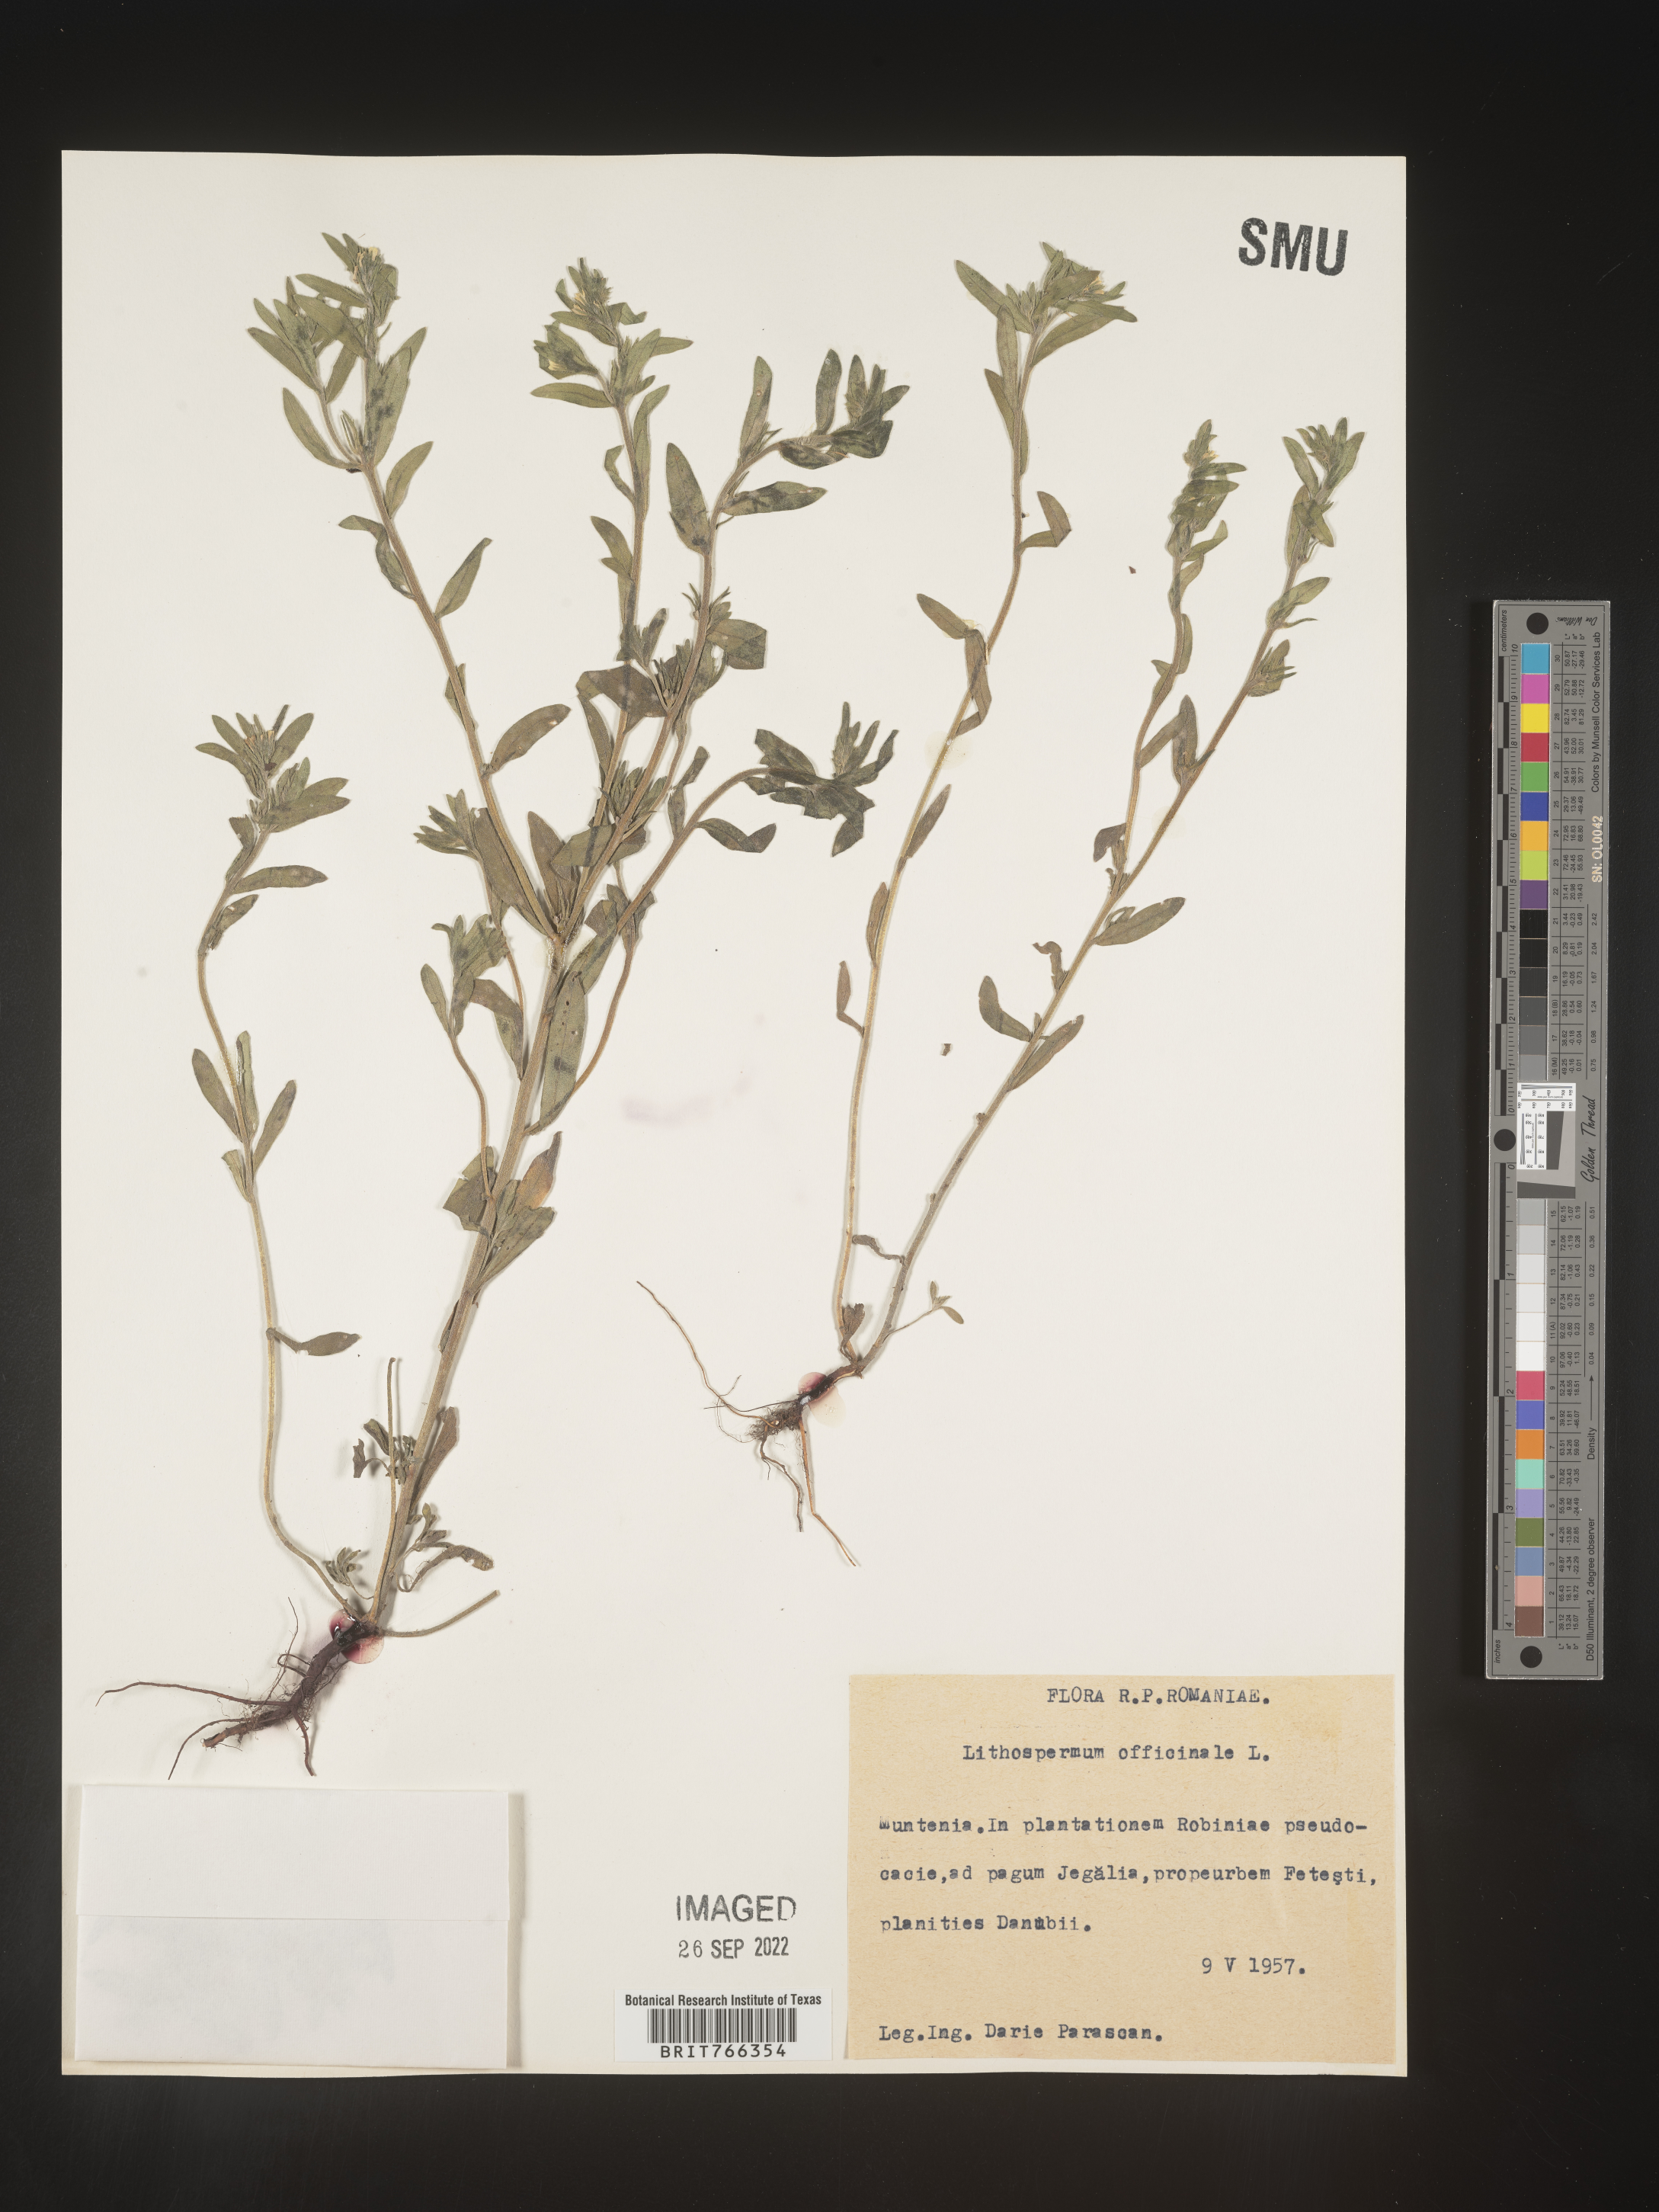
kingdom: Plantae
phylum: Tracheophyta
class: Magnoliopsida
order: Boraginales
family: Boraginaceae
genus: Buglossoides
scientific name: Buglossoides
